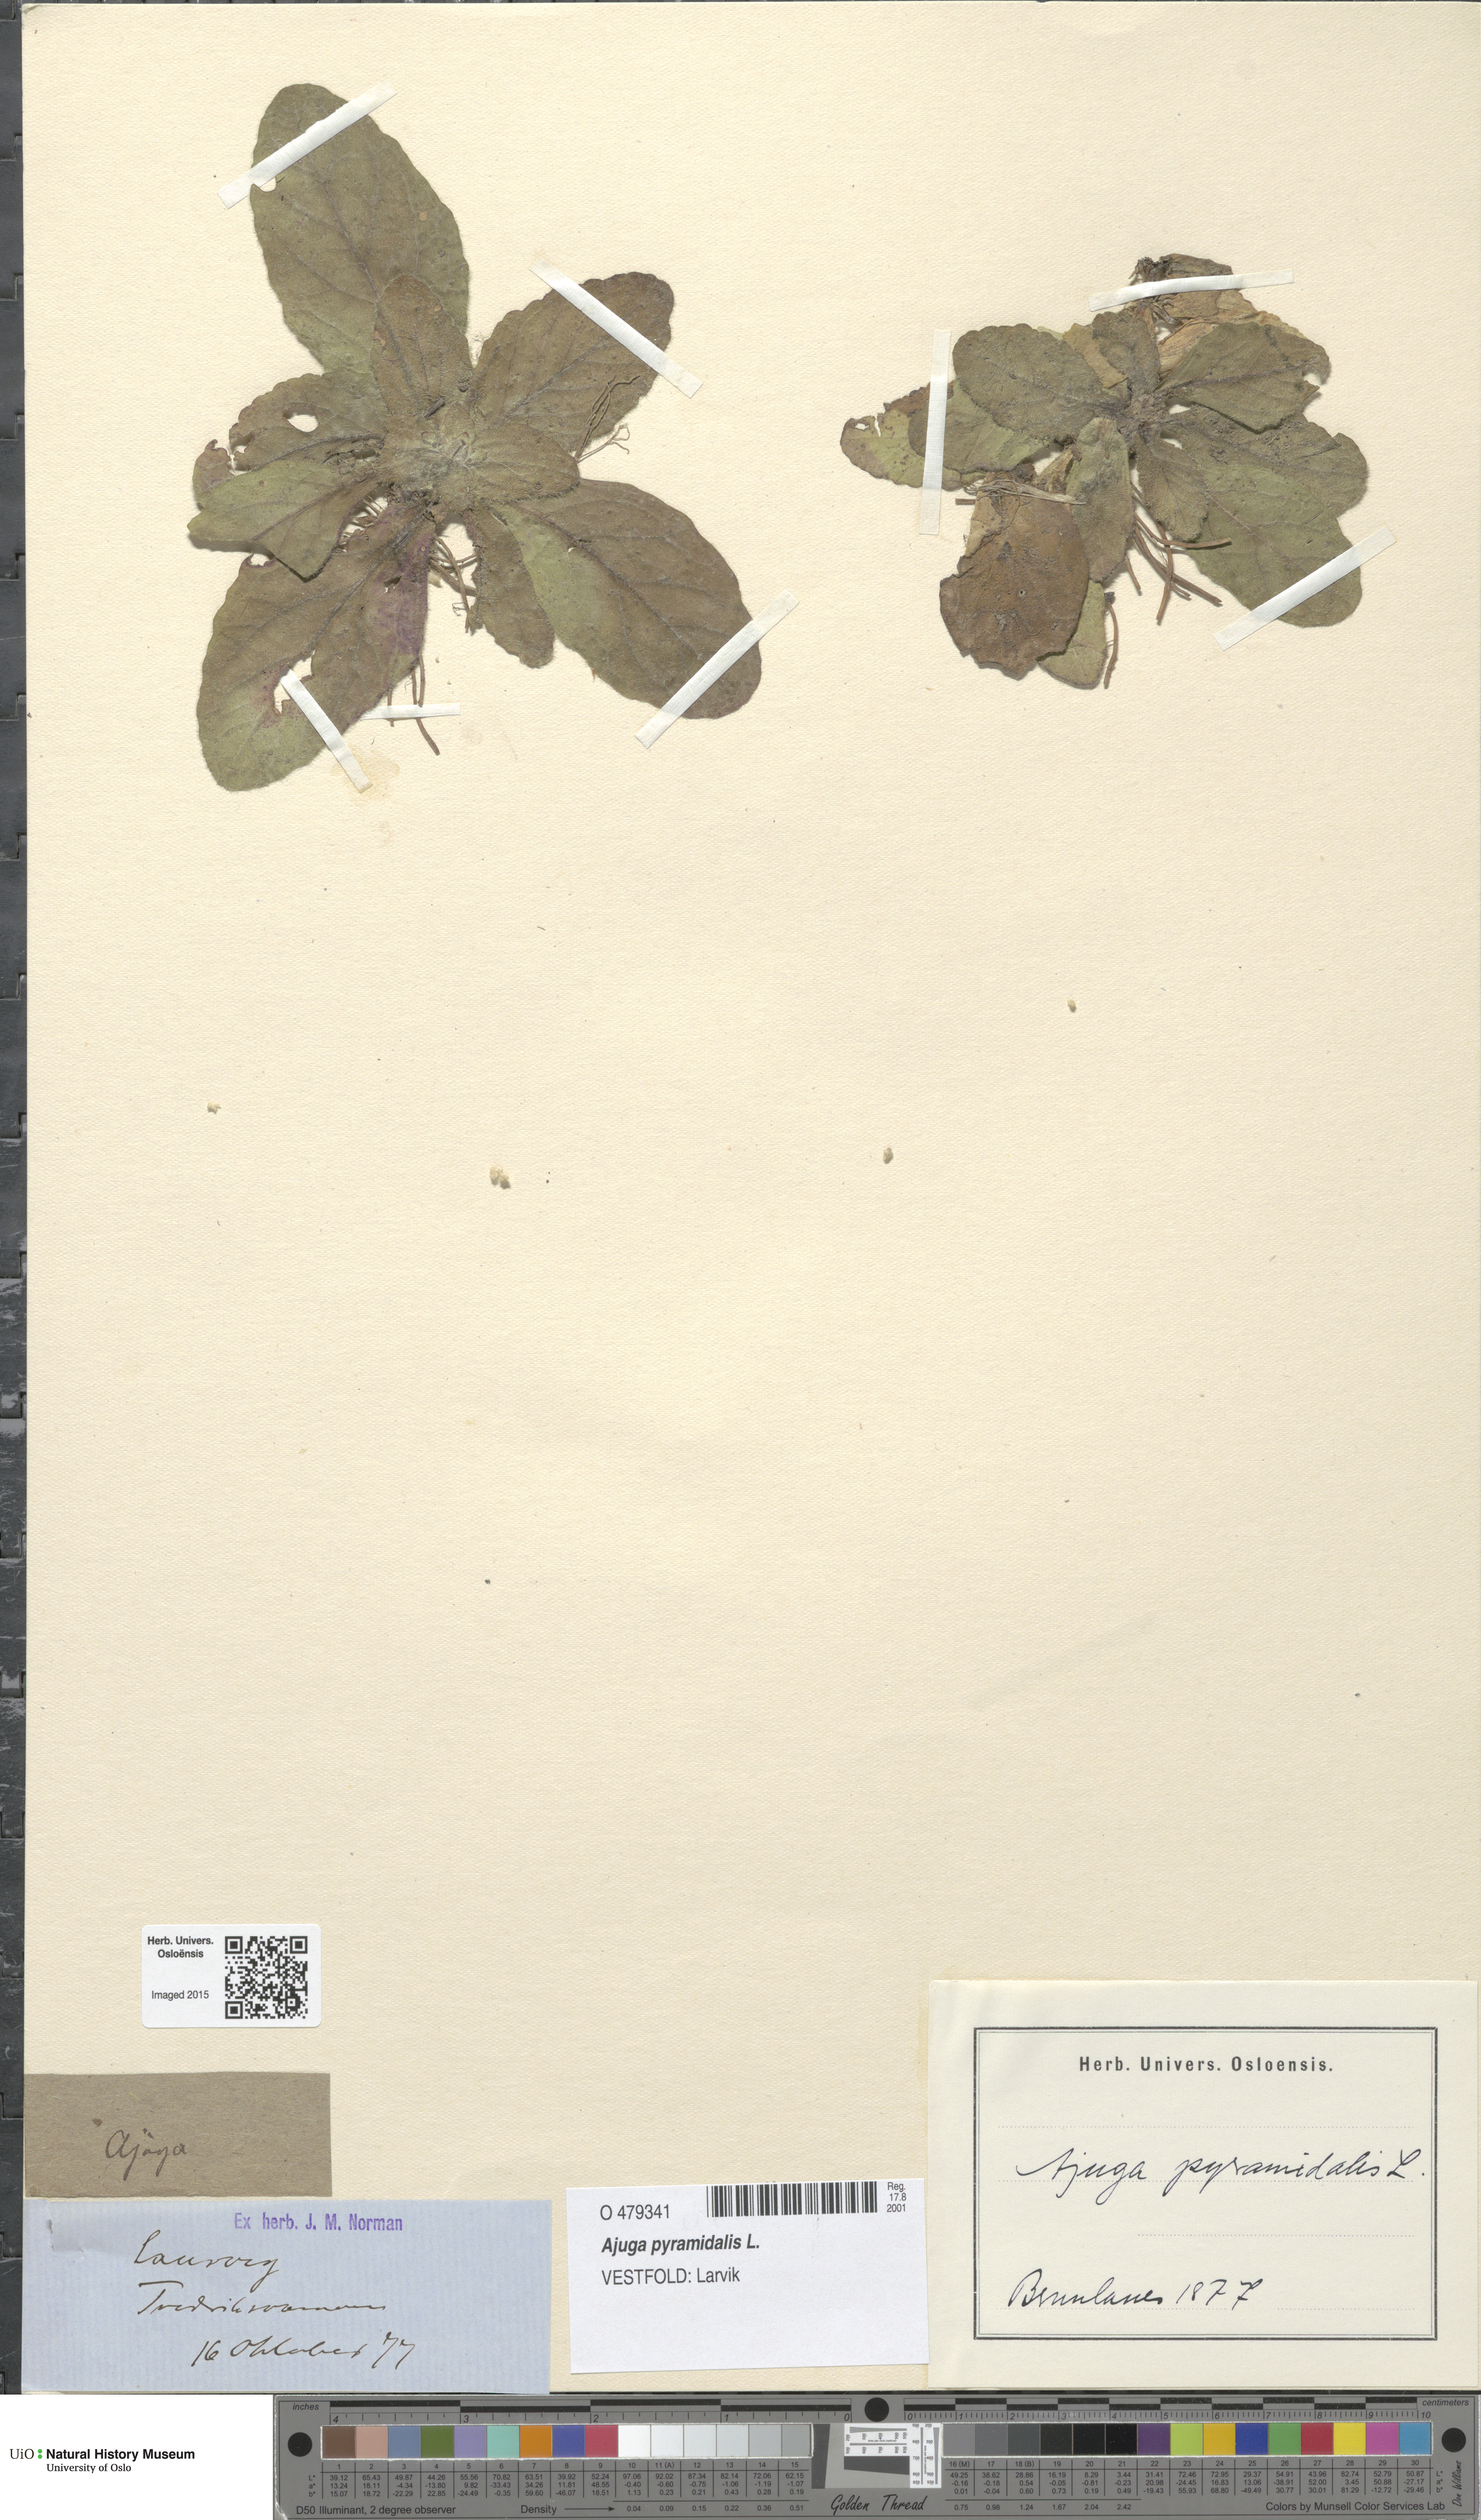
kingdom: Plantae
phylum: Tracheophyta
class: Magnoliopsida
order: Lamiales
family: Lamiaceae
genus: Ajuga
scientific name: Ajuga pyramidalis
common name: Pyramid bugle
